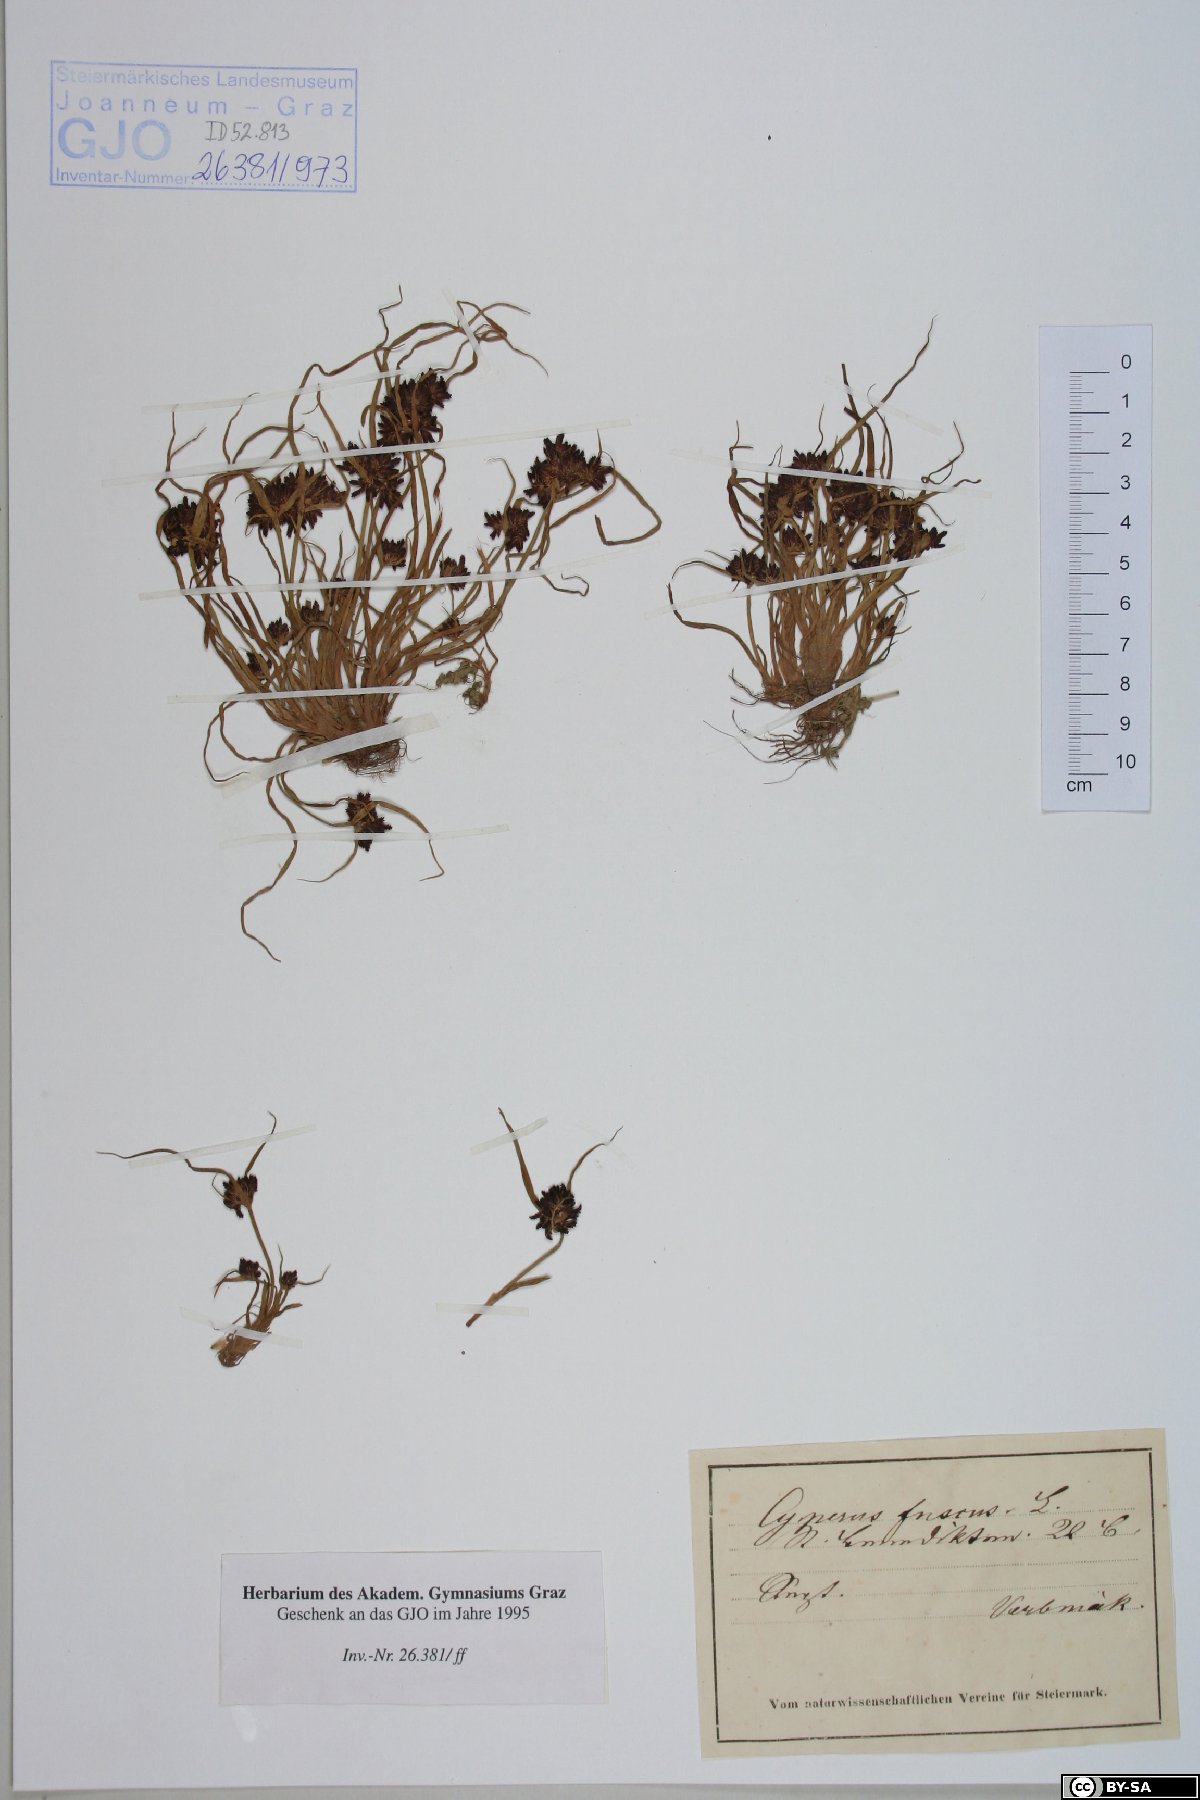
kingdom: Plantae
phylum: Tracheophyta
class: Liliopsida
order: Poales
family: Cyperaceae
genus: Cyperus
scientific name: Cyperus fuscus
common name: Brown galingale
